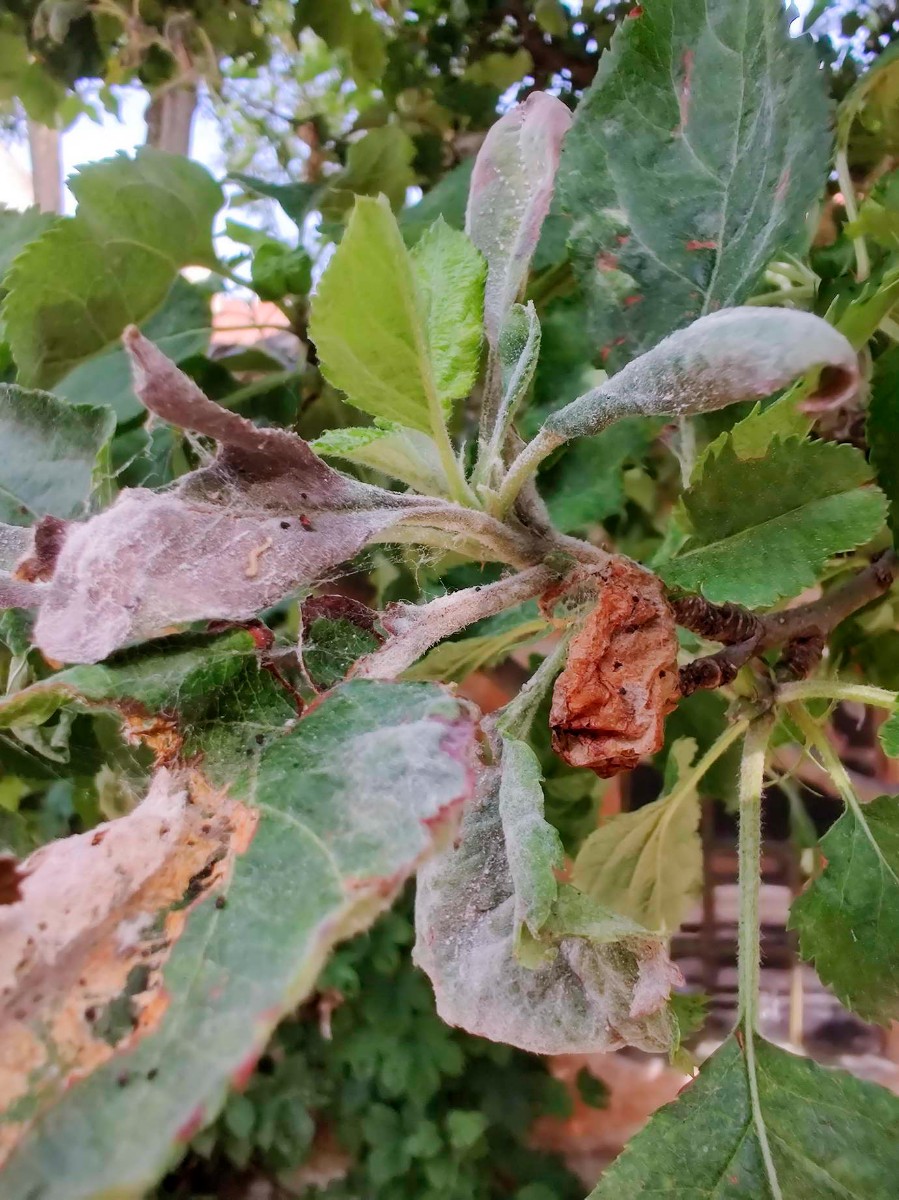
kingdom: Fungi
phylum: Ascomycota
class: Leotiomycetes
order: Helotiales
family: Erysiphaceae
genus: Podosphaera
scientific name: Podosphaera leucotricha
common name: æble-meldug
